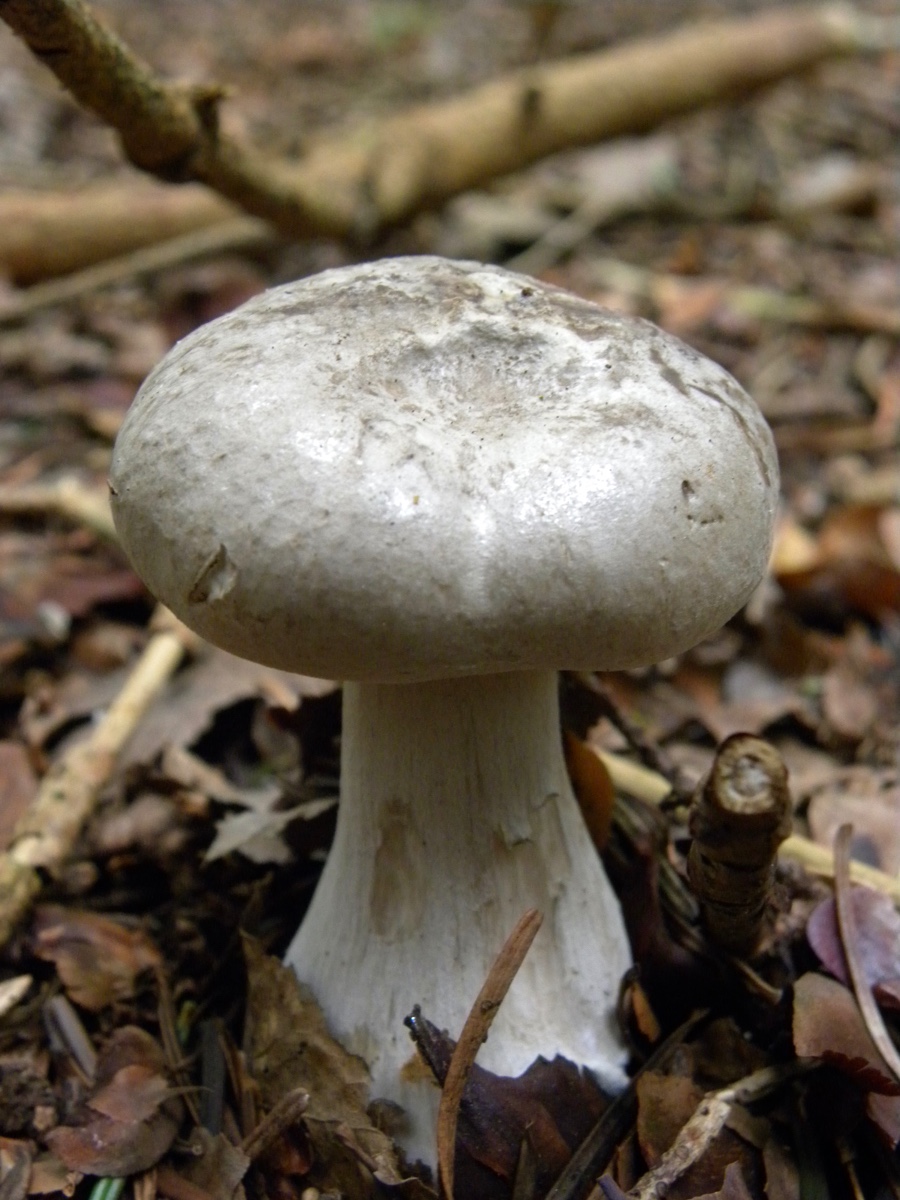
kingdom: Fungi
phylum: Basidiomycota
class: Agaricomycetes
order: Agaricales
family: Tricholomataceae
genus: Clitocybe
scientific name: Clitocybe nebularis
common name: tåge-tragthat
